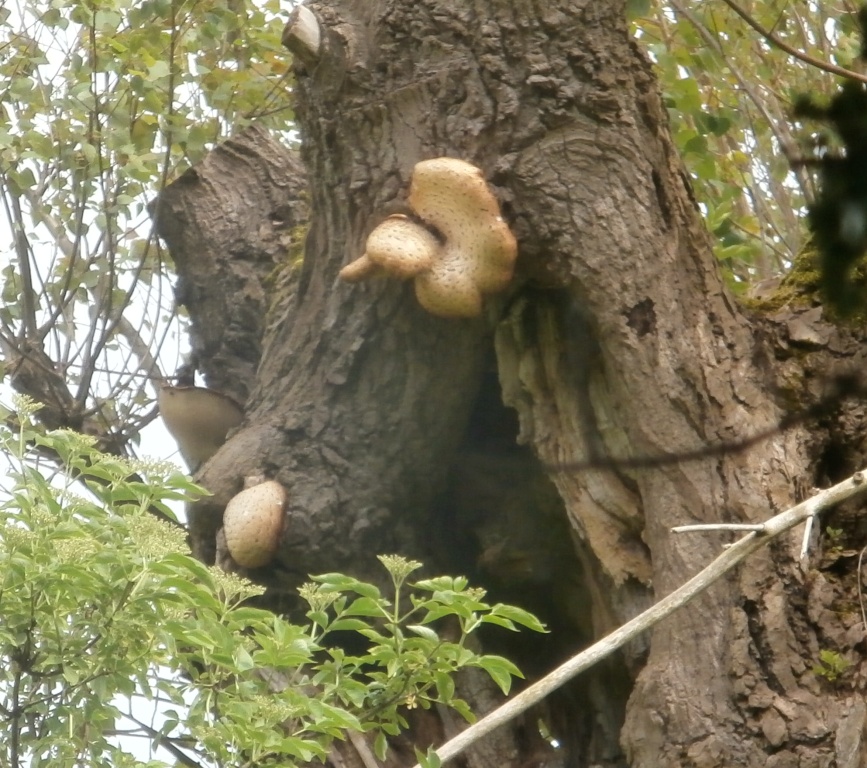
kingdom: Fungi
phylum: Basidiomycota
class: Agaricomycetes
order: Polyporales
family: Polyporaceae
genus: Cerioporus
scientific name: Cerioporus squamosus
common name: skællet stilkporesvamp
